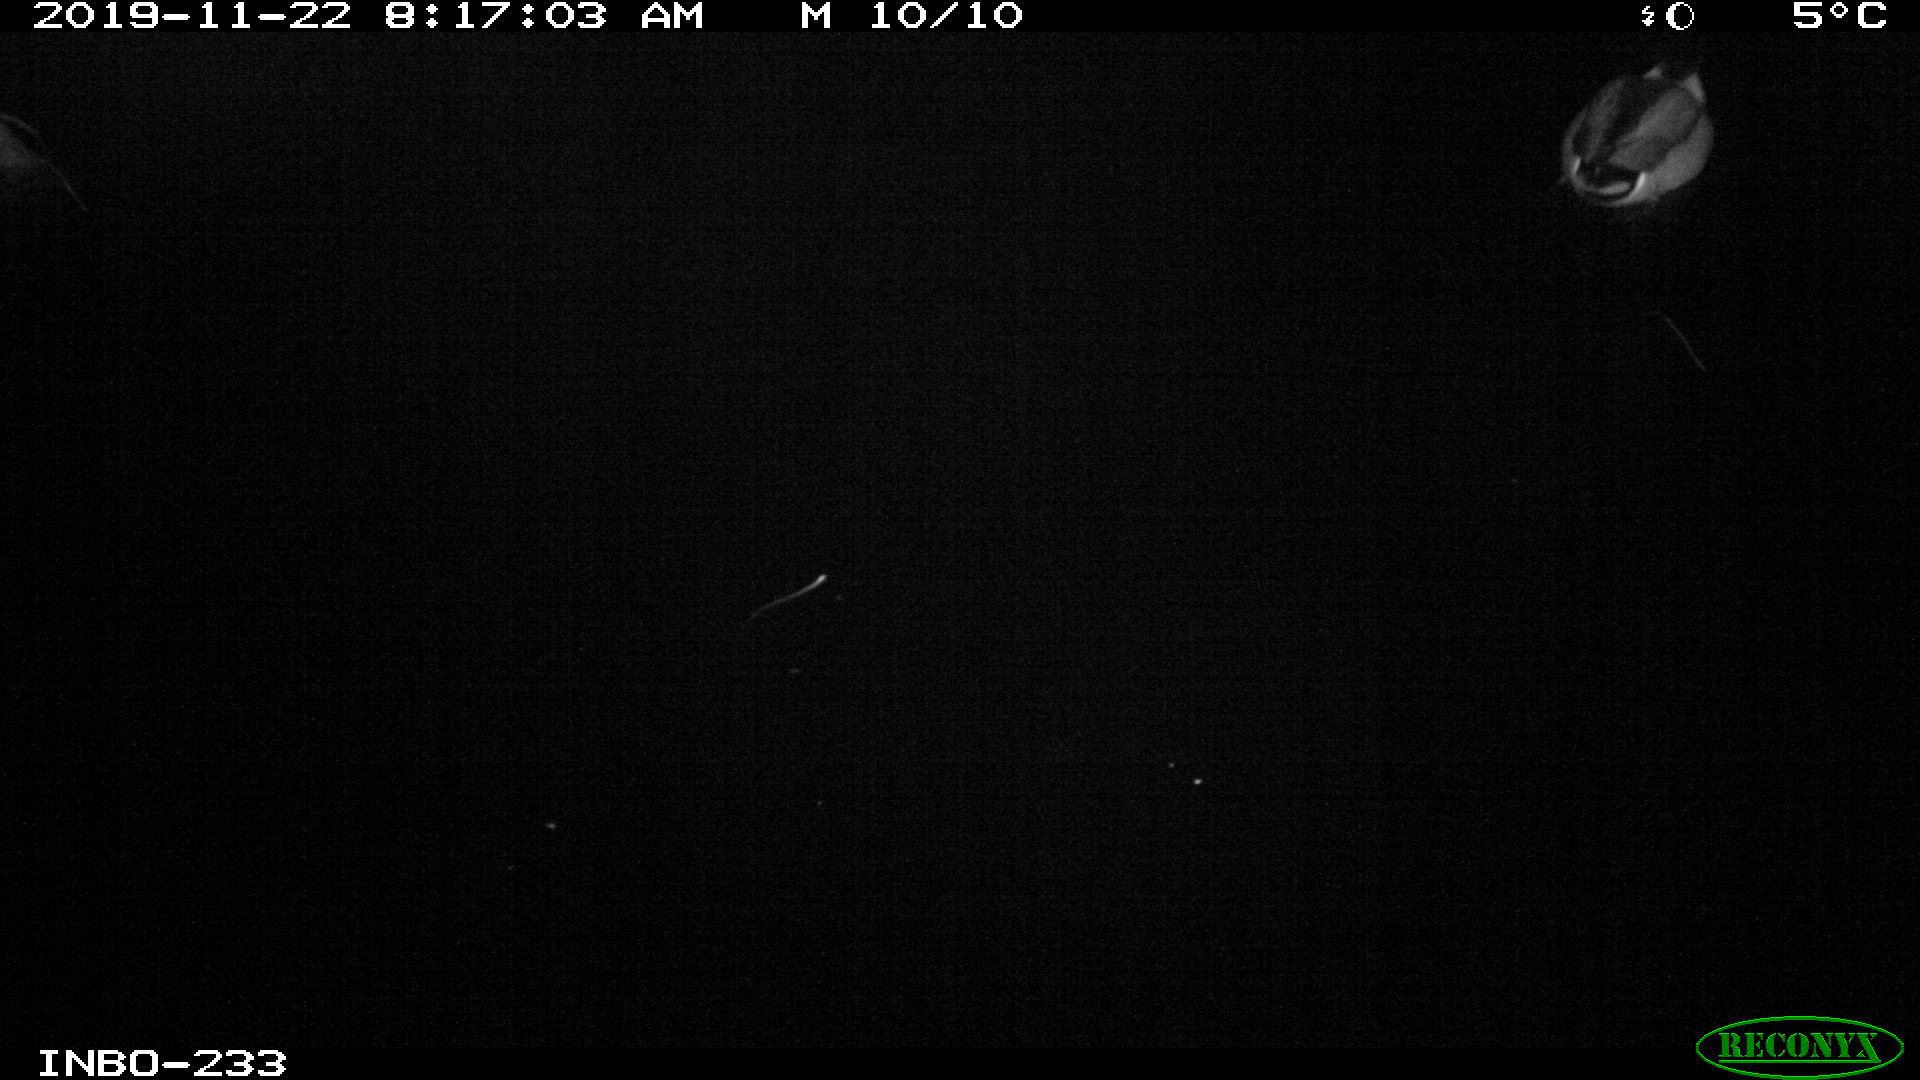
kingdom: Animalia
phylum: Chordata
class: Aves
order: Anseriformes
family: Anatidae
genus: Anas
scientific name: Anas platyrhynchos
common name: Mallard
